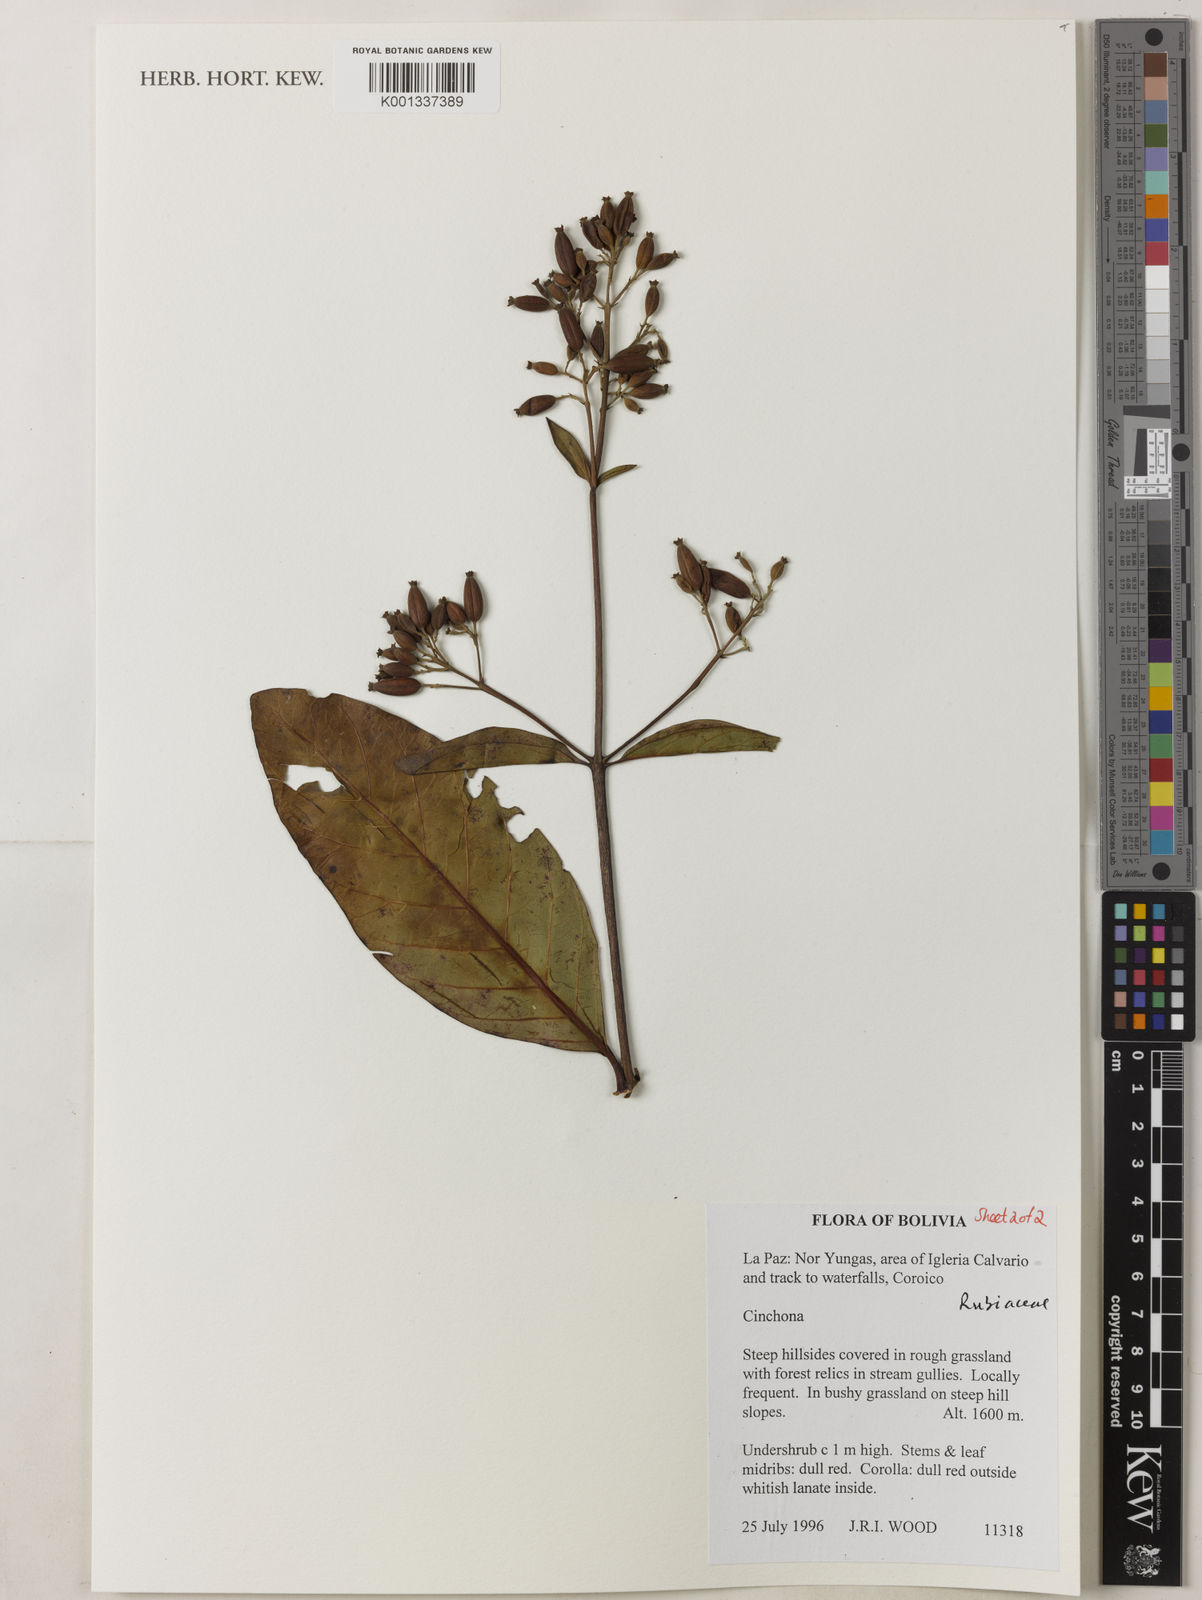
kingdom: Plantae
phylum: Tracheophyta
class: Magnoliopsida
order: Gentianales
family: Rubiaceae
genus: Cinchona
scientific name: Cinchona
